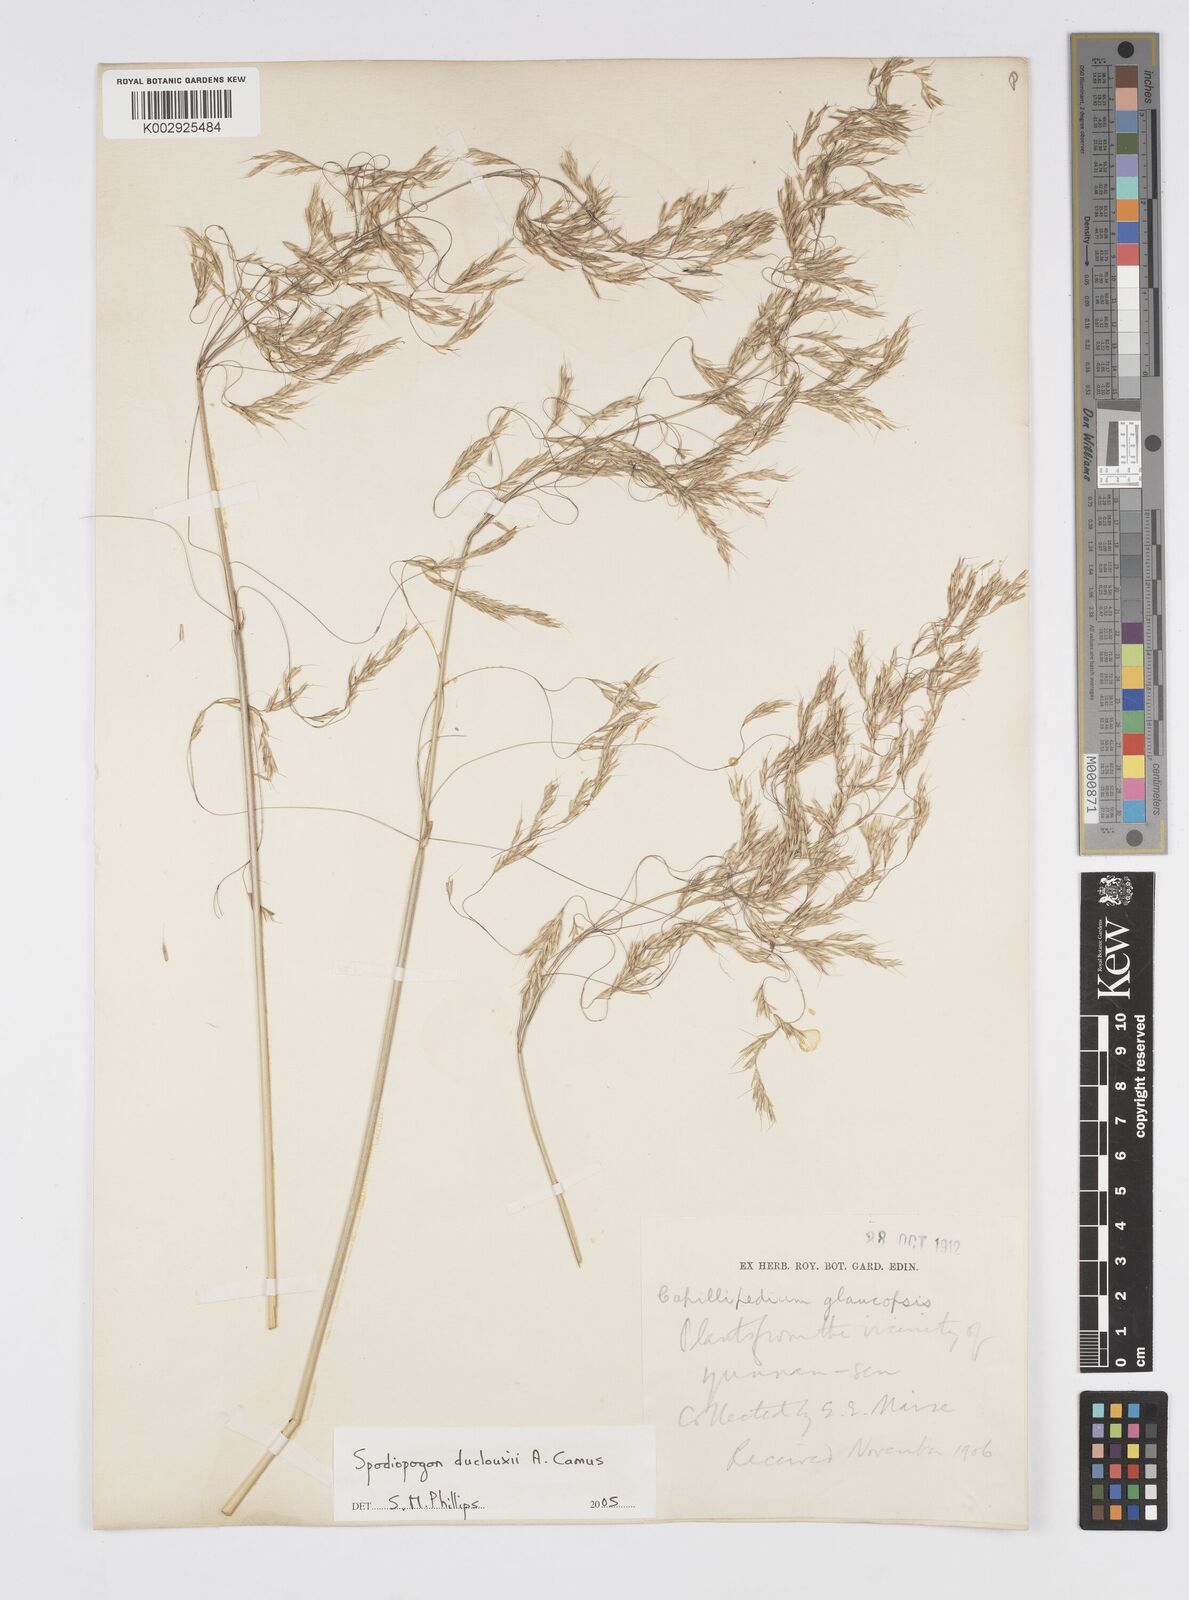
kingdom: Plantae
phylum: Tracheophyta
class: Liliopsida
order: Poales
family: Poaceae
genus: Spodiopogon
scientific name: Spodiopogon duclouxii
